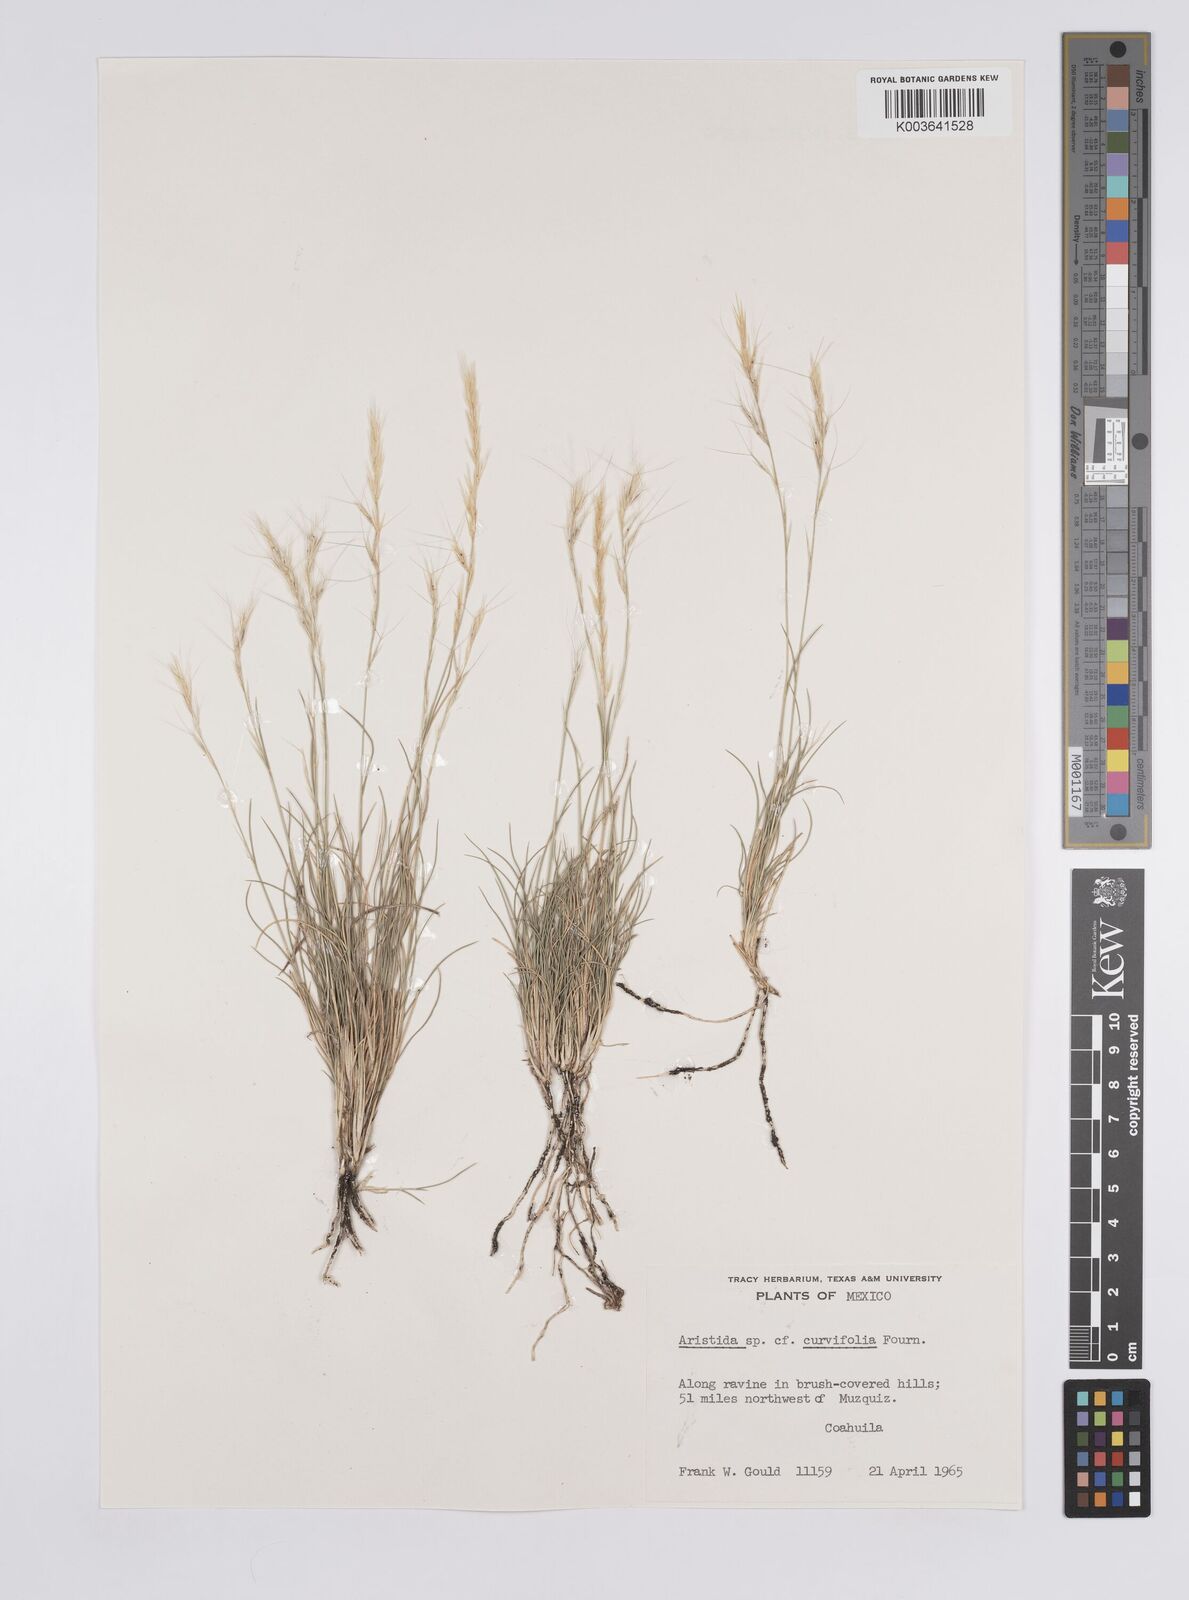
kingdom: Plantae
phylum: Tracheophyta
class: Liliopsida
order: Poales
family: Poaceae
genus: Aristida
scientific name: Aristida
